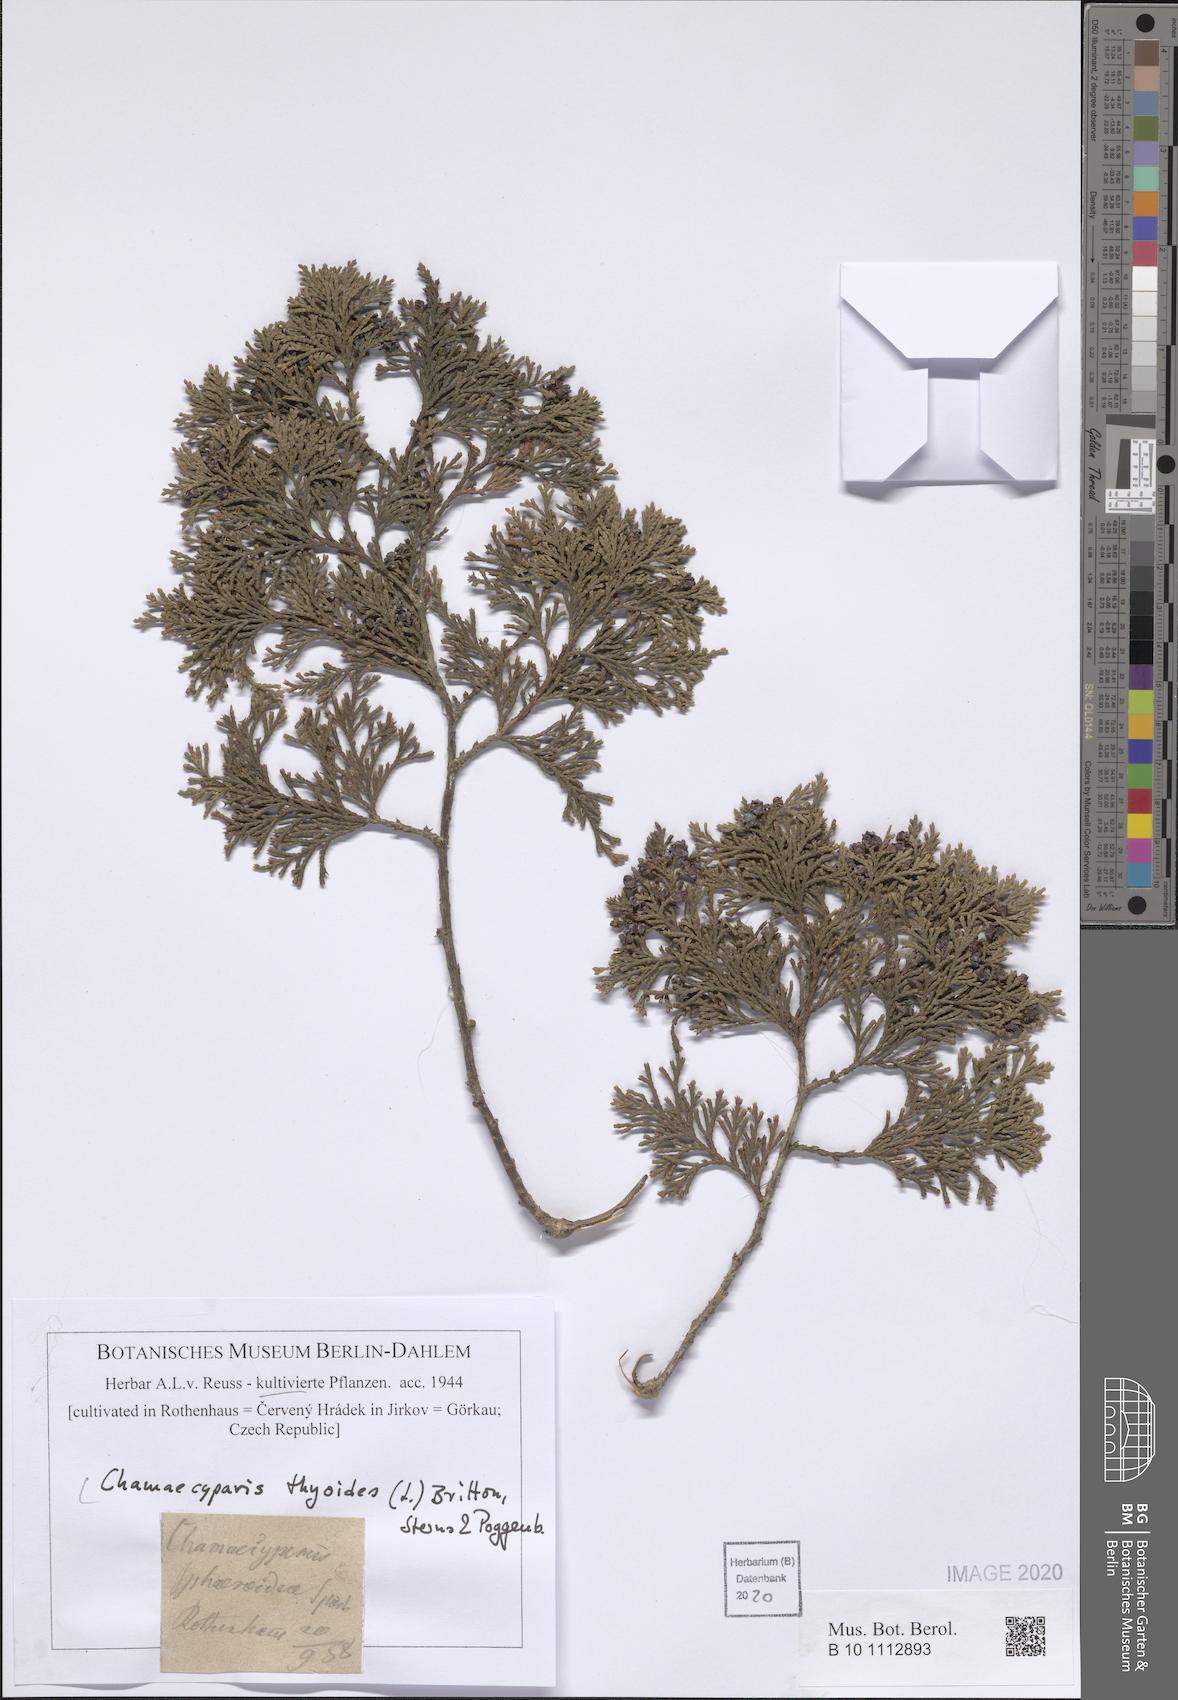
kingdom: Plantae
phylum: Tracheophyta
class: Pinopsida
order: Pinales
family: Cupressaceae
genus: Chamaecyparis
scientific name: Chamaecyparis thyoides
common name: Atlantic white cedar
